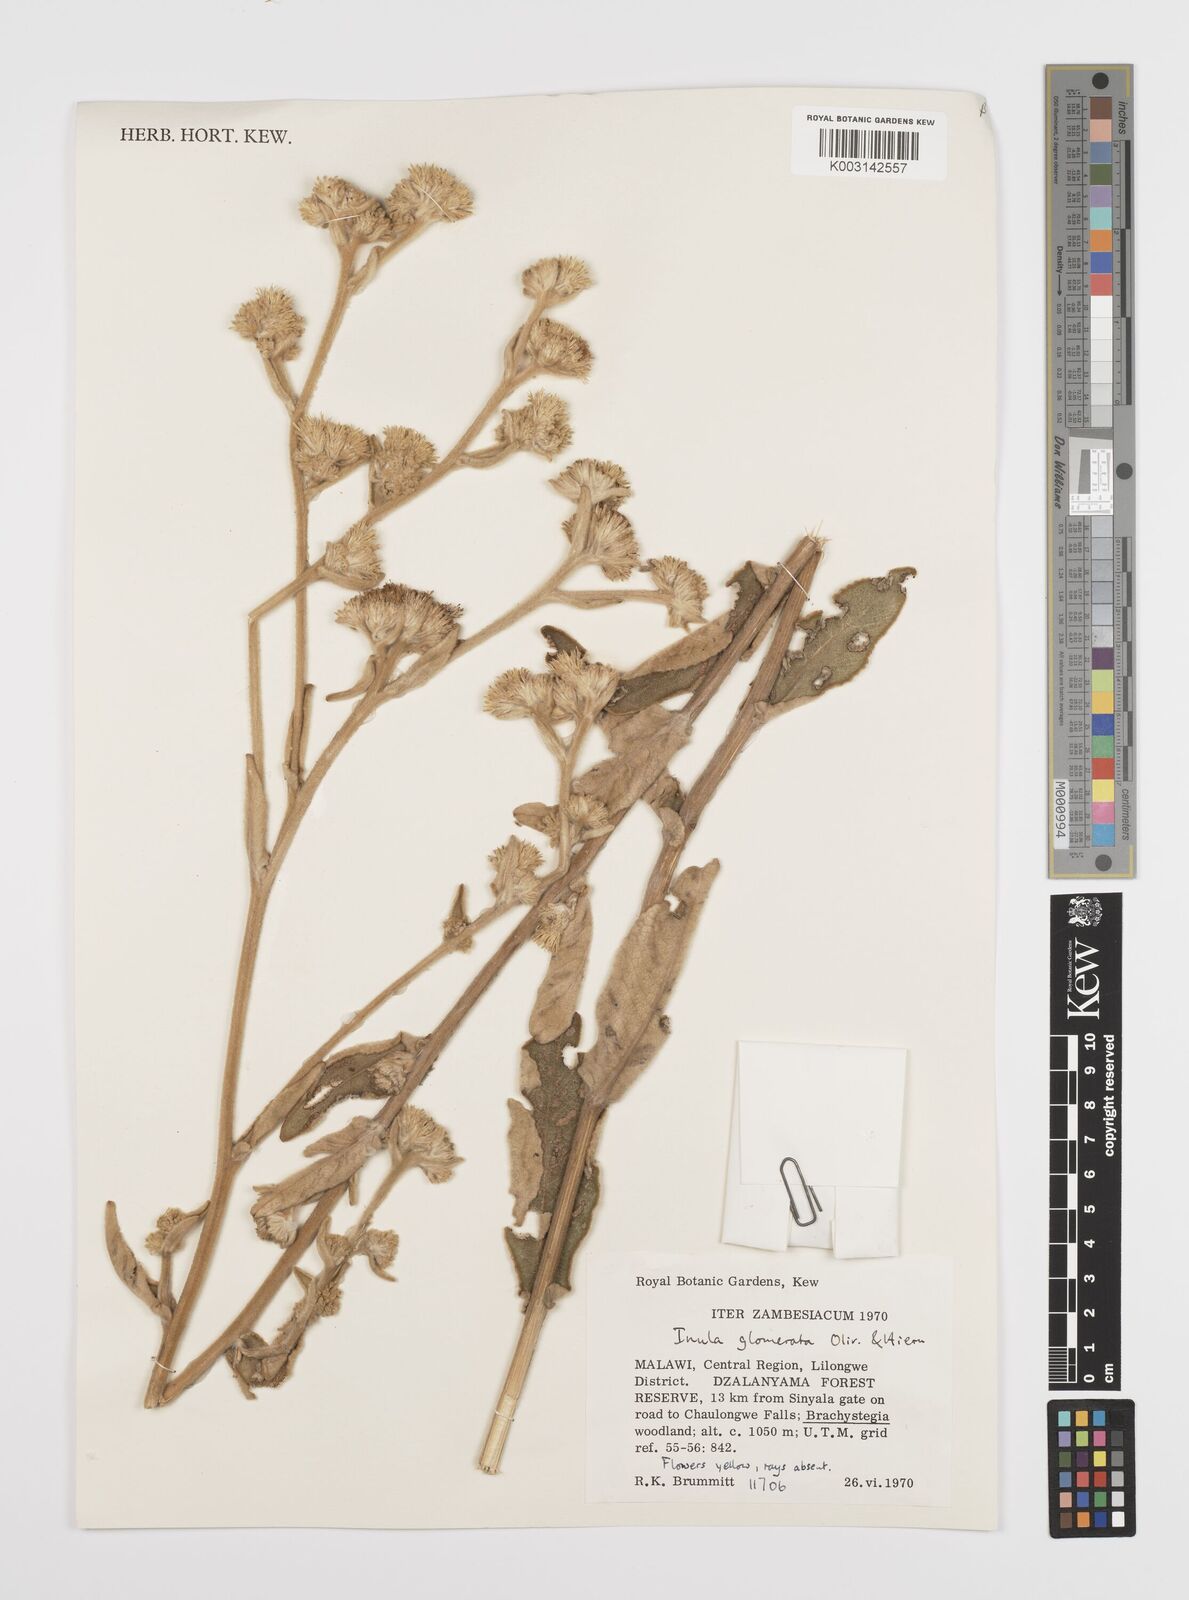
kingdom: Plantae
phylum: Tracheophyta
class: Magnoliopsida
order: Asterales
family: Asteraceae
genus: Inula
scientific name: Inula glomerata
